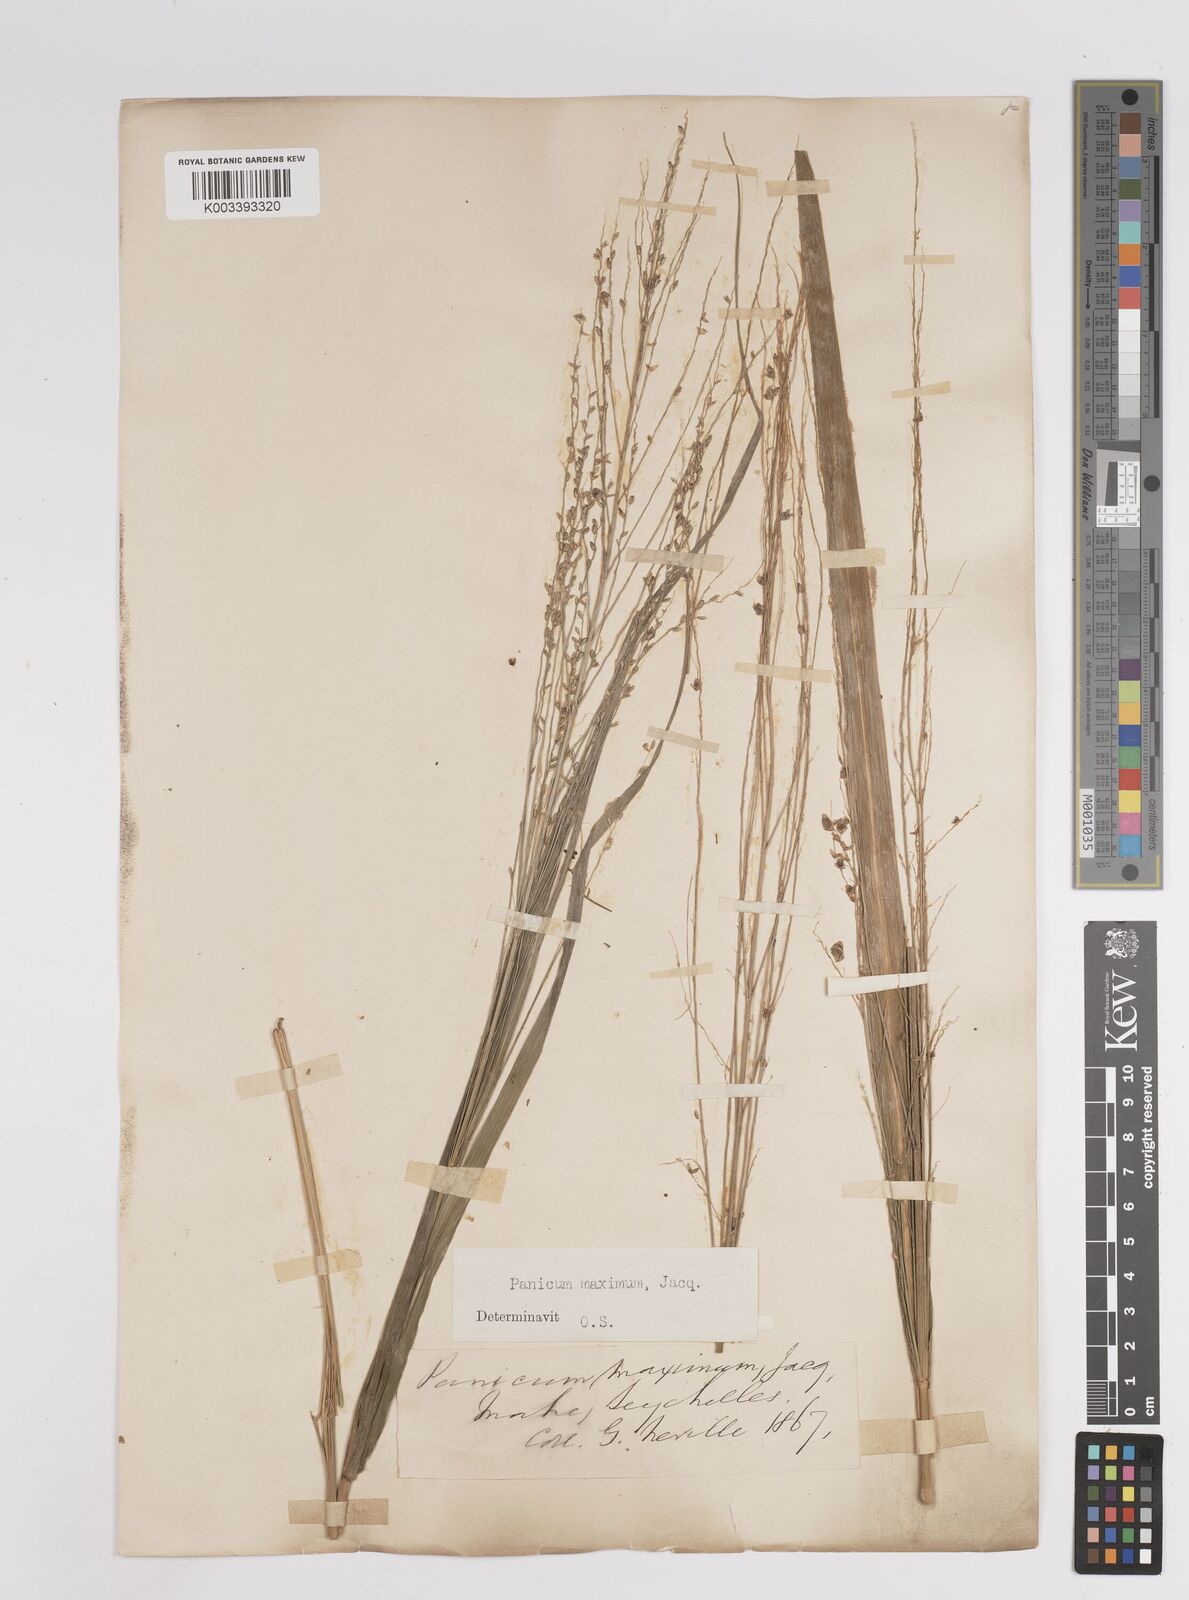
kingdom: Plantae
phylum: Tracheophyta
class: Liliopsida
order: Poales
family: Poaceae
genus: Megathyrsus
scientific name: Megathyrsus maximus
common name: Guineagrass
